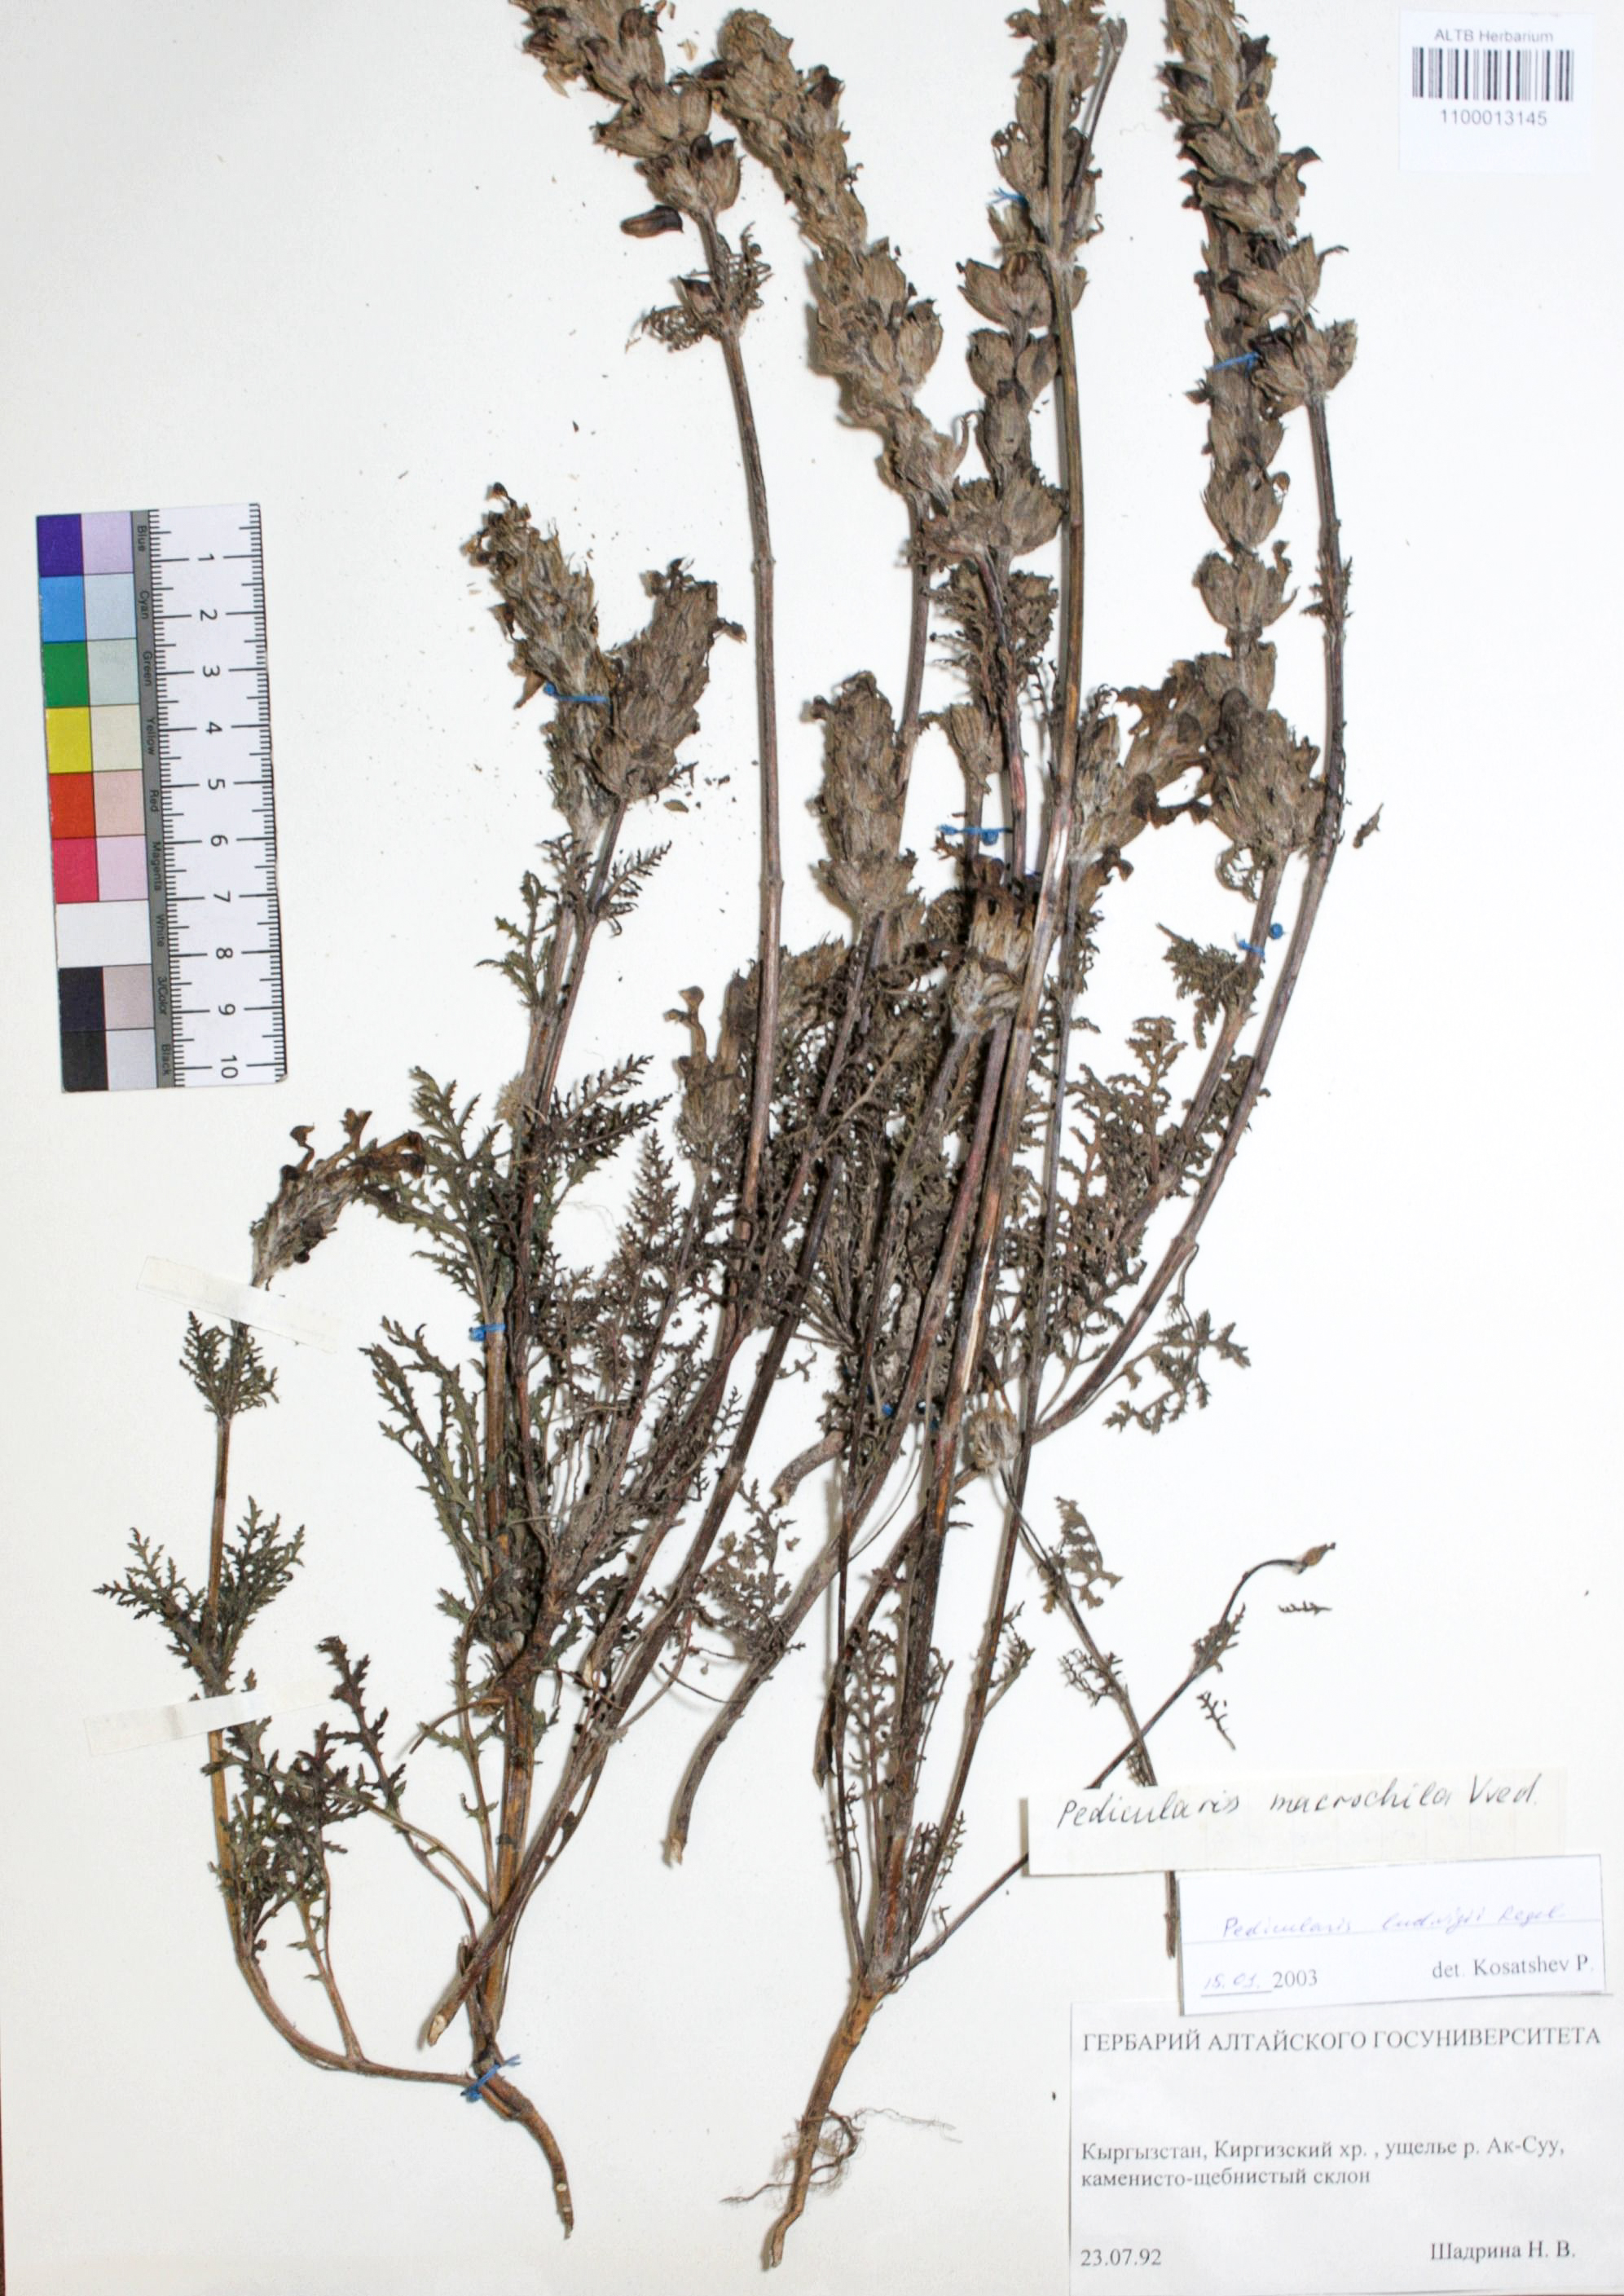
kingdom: Plantae
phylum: Tracheophyta
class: Magnoliopsida
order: Lamiales
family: Orobanchaceae
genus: Pedicularis
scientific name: Pedicularis ludwigii
